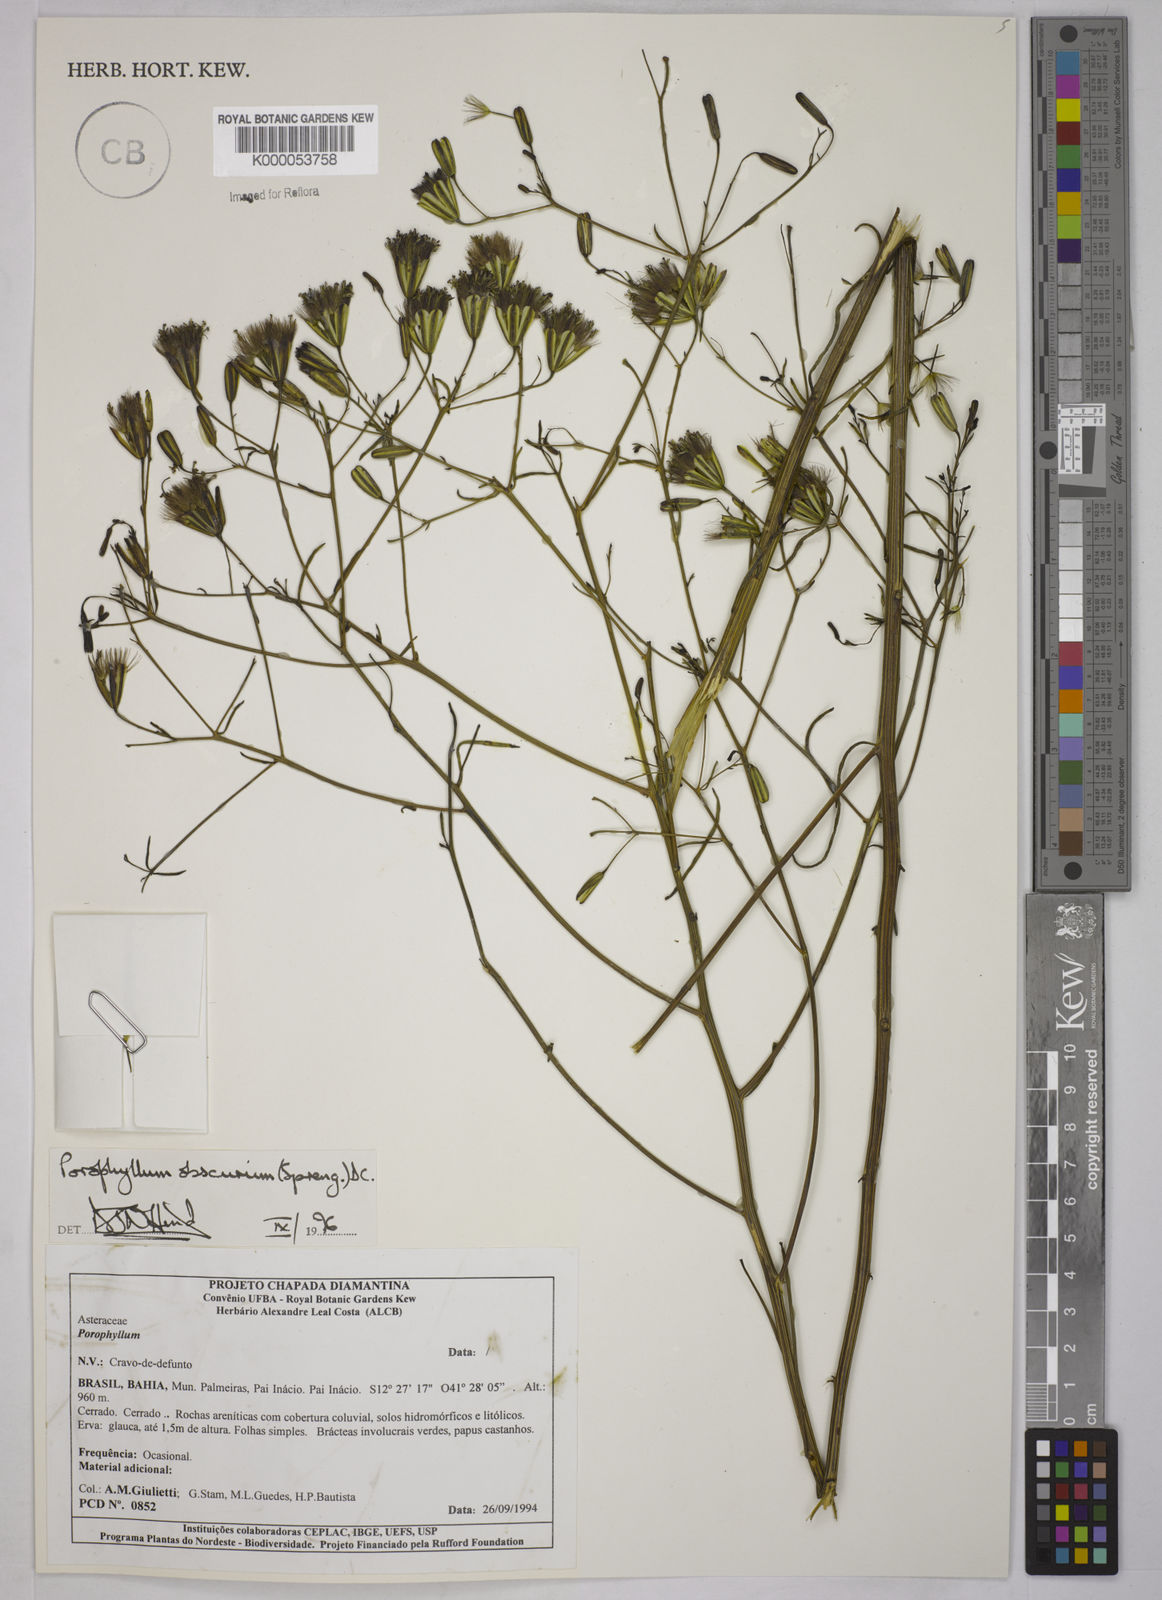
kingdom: Plantae
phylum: Tracheophyta
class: Magnoliopsida
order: Asterales
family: Asteraceae
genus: Porophyllum
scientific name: Porophyllum obscurum
